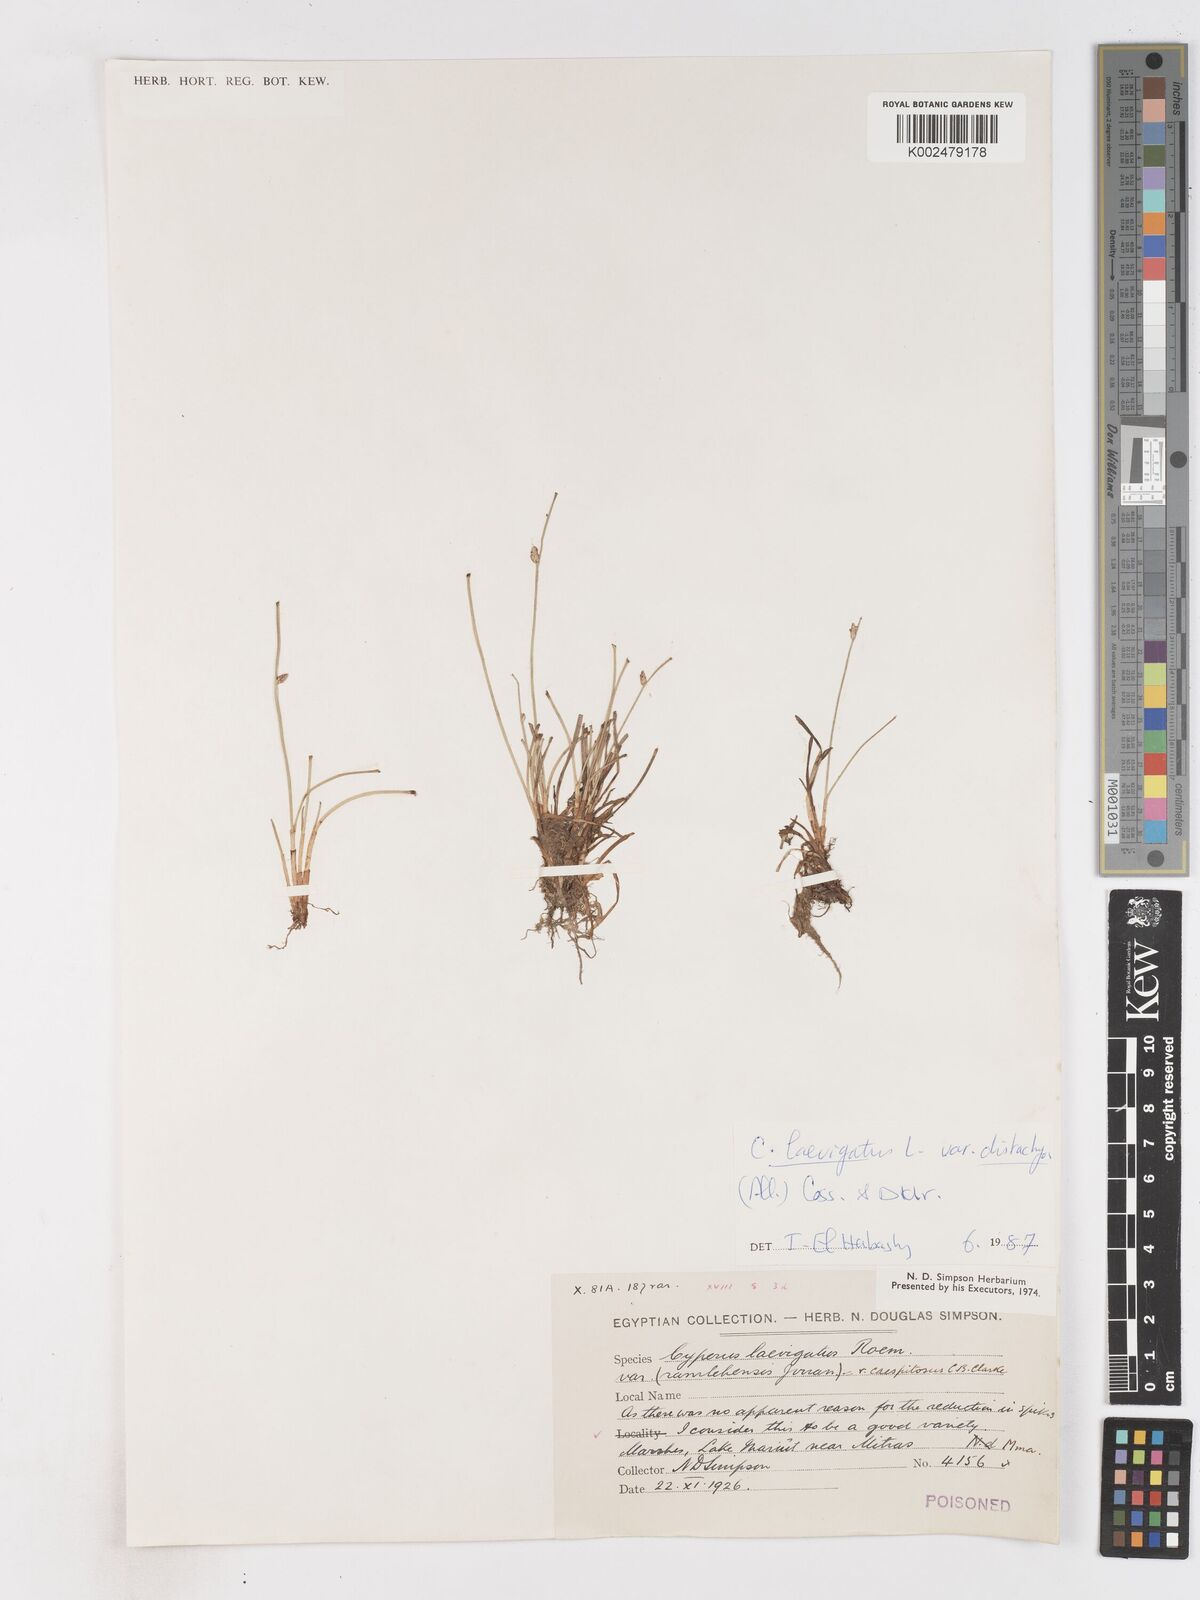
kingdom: Plantae
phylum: Tracheophyta
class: Liliopsida
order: Poales
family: Cyperaceae
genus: Cyperus
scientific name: Cyperus laevigatus
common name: Smooth flat sedge
